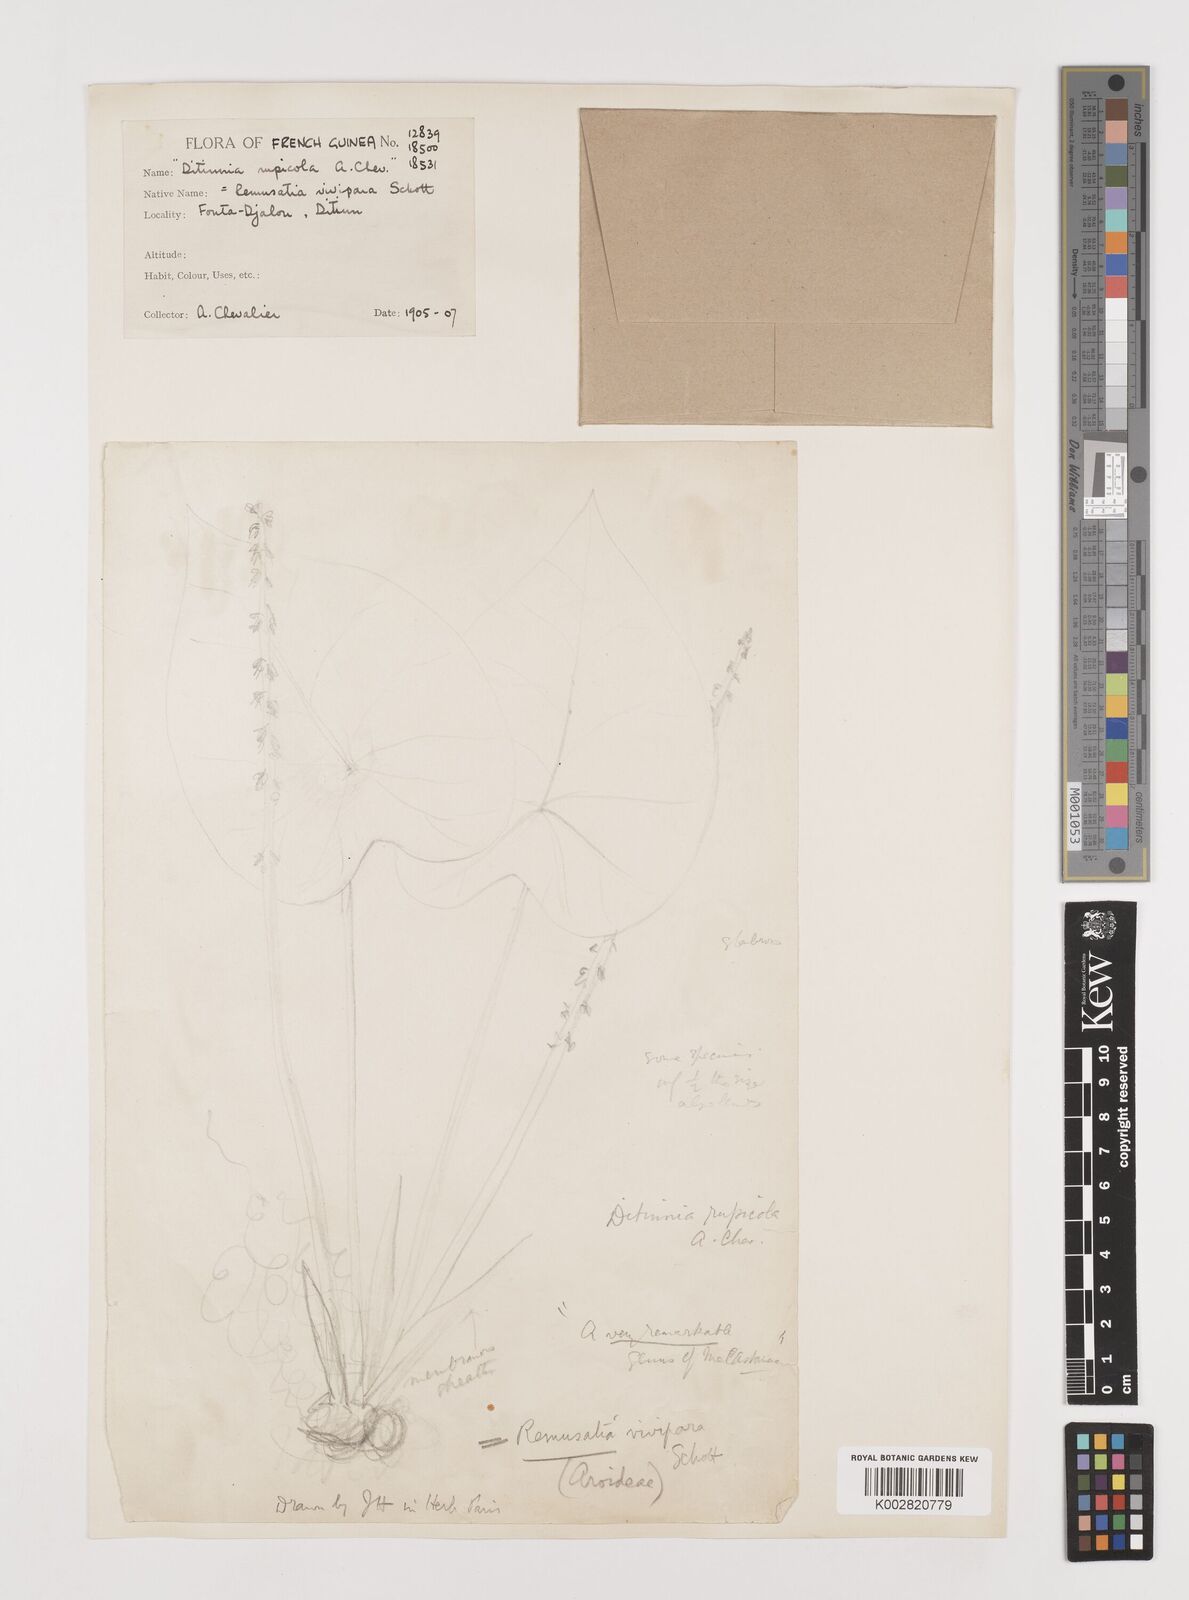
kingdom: Plantae
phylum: Tracheophyta
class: Liliopsida
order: Alismatales
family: Araceae
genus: Remusatia
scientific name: Remusatia vivipara
